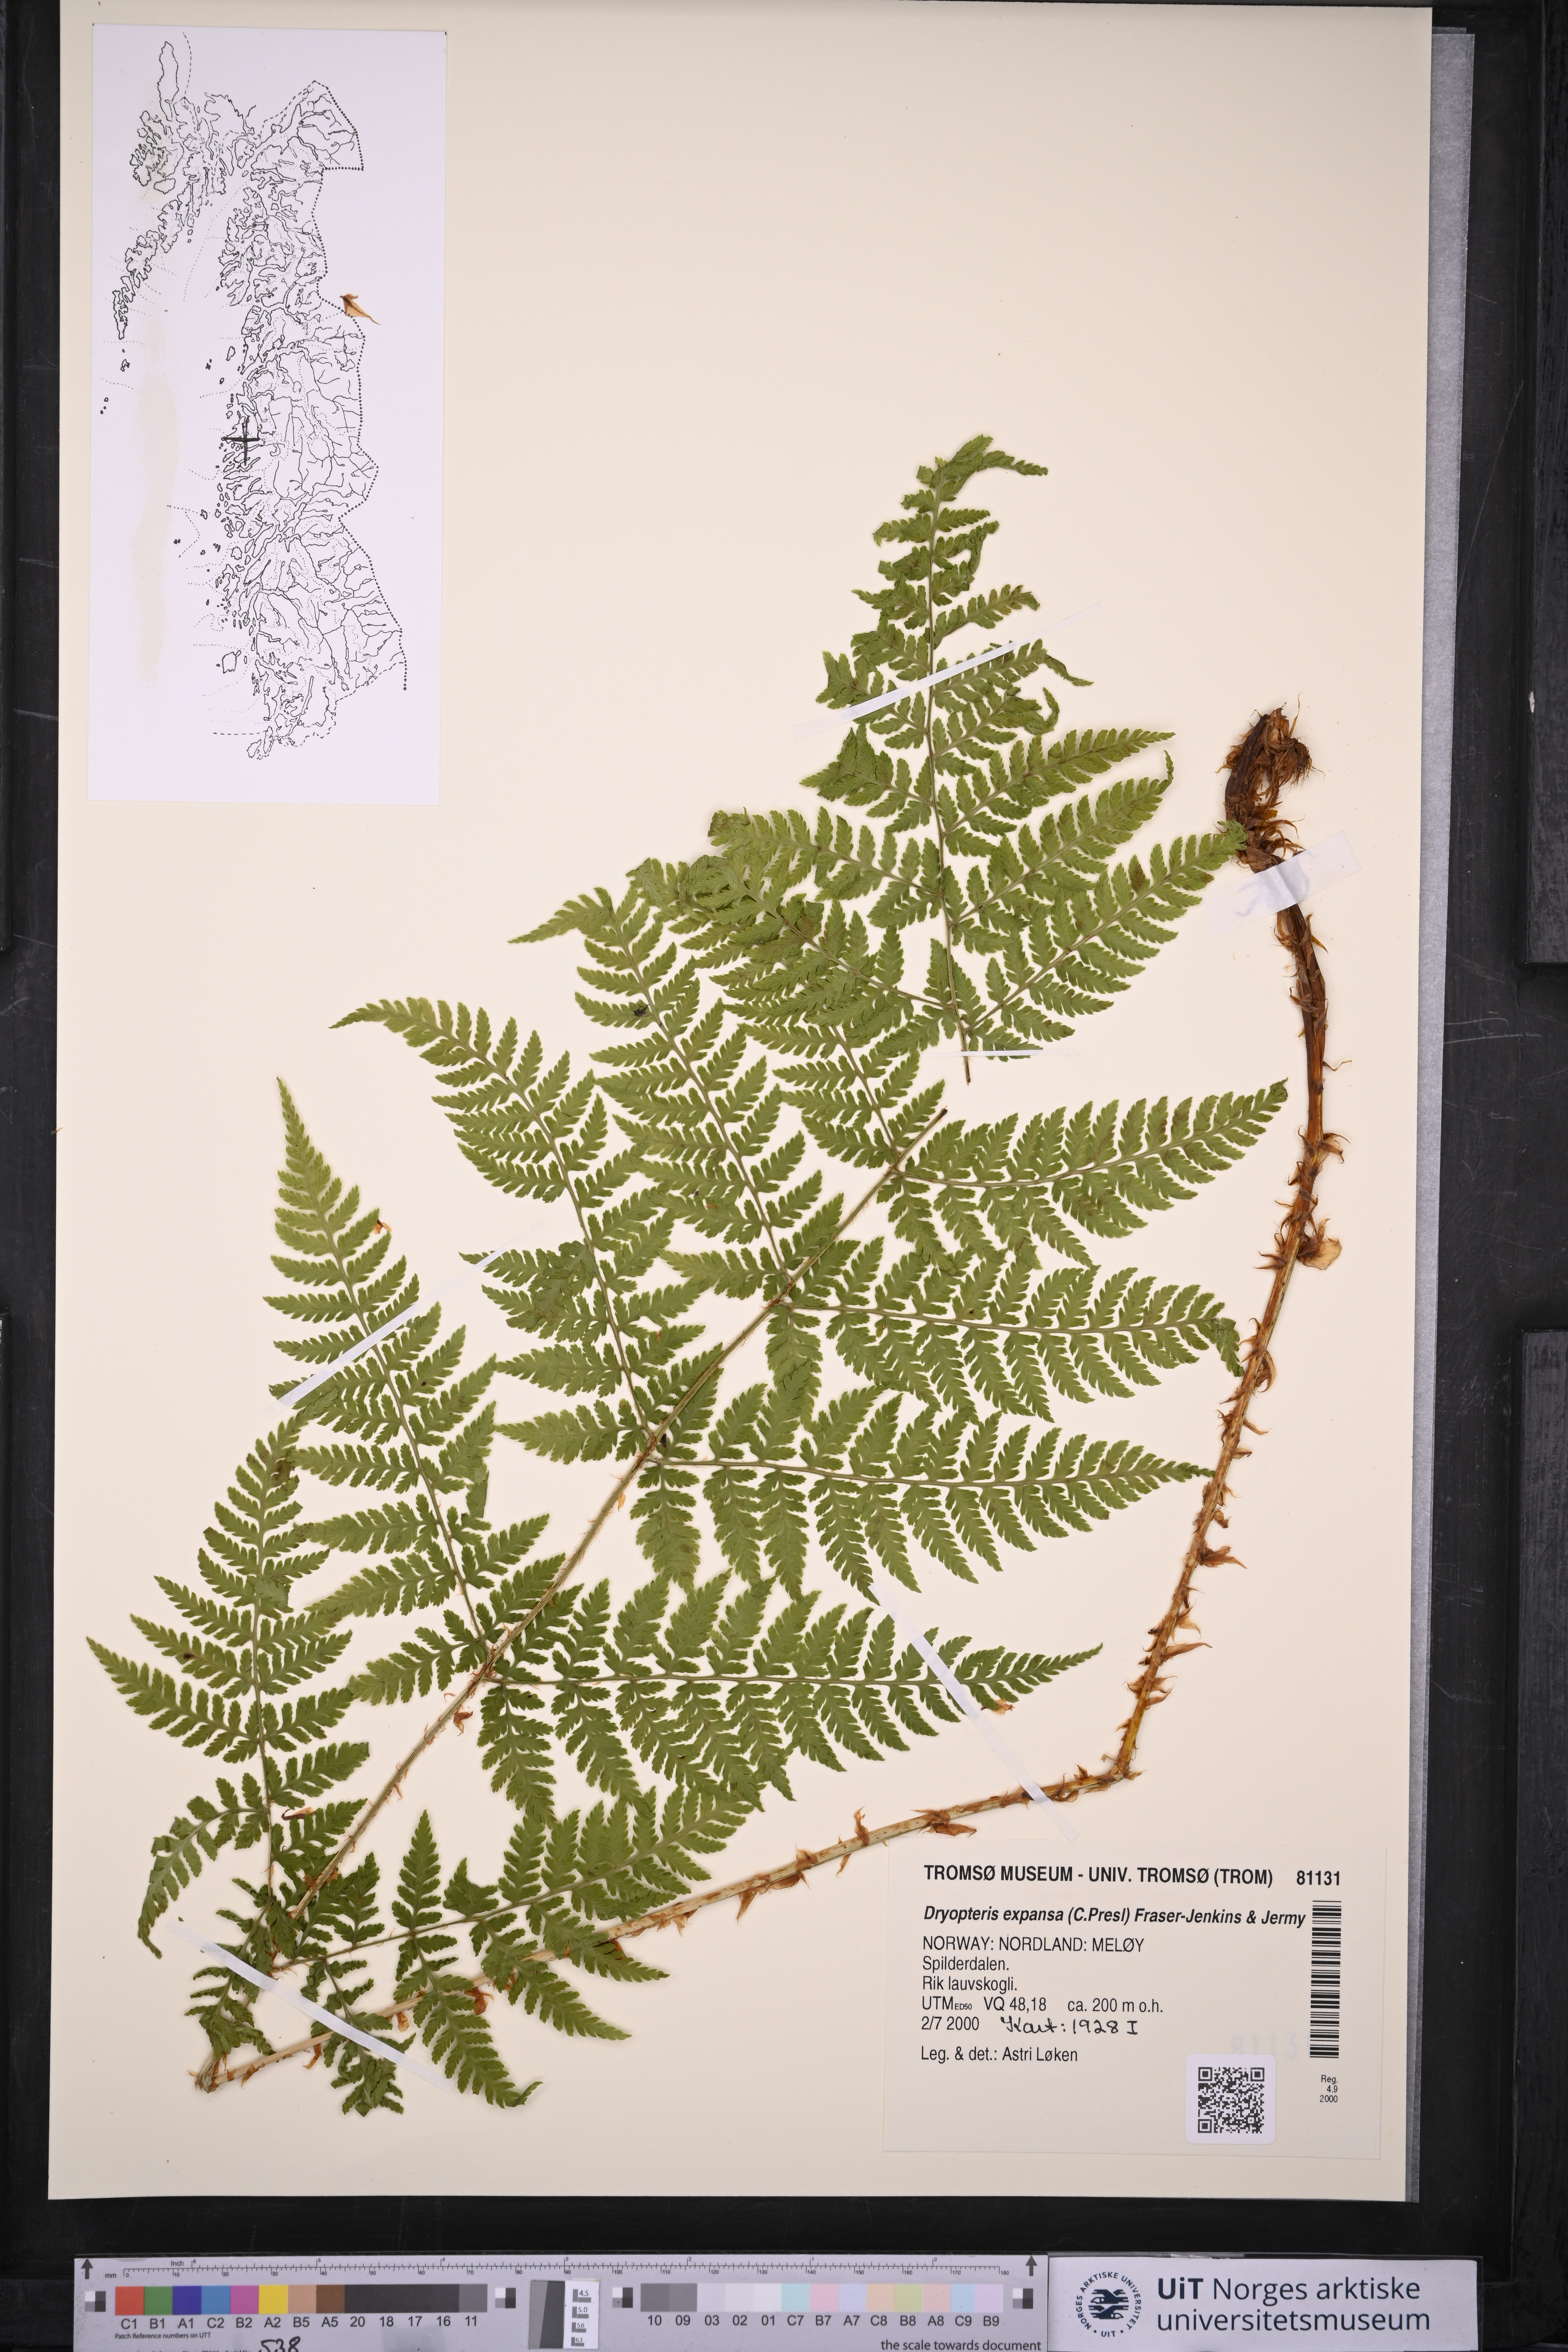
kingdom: Plantae
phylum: Tracheophyta
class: Polypodiopsida
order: Polypodiales
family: Dryopteridaceae
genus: Dryopteris
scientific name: Dryopteris expansa
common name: Northern buckler fern
